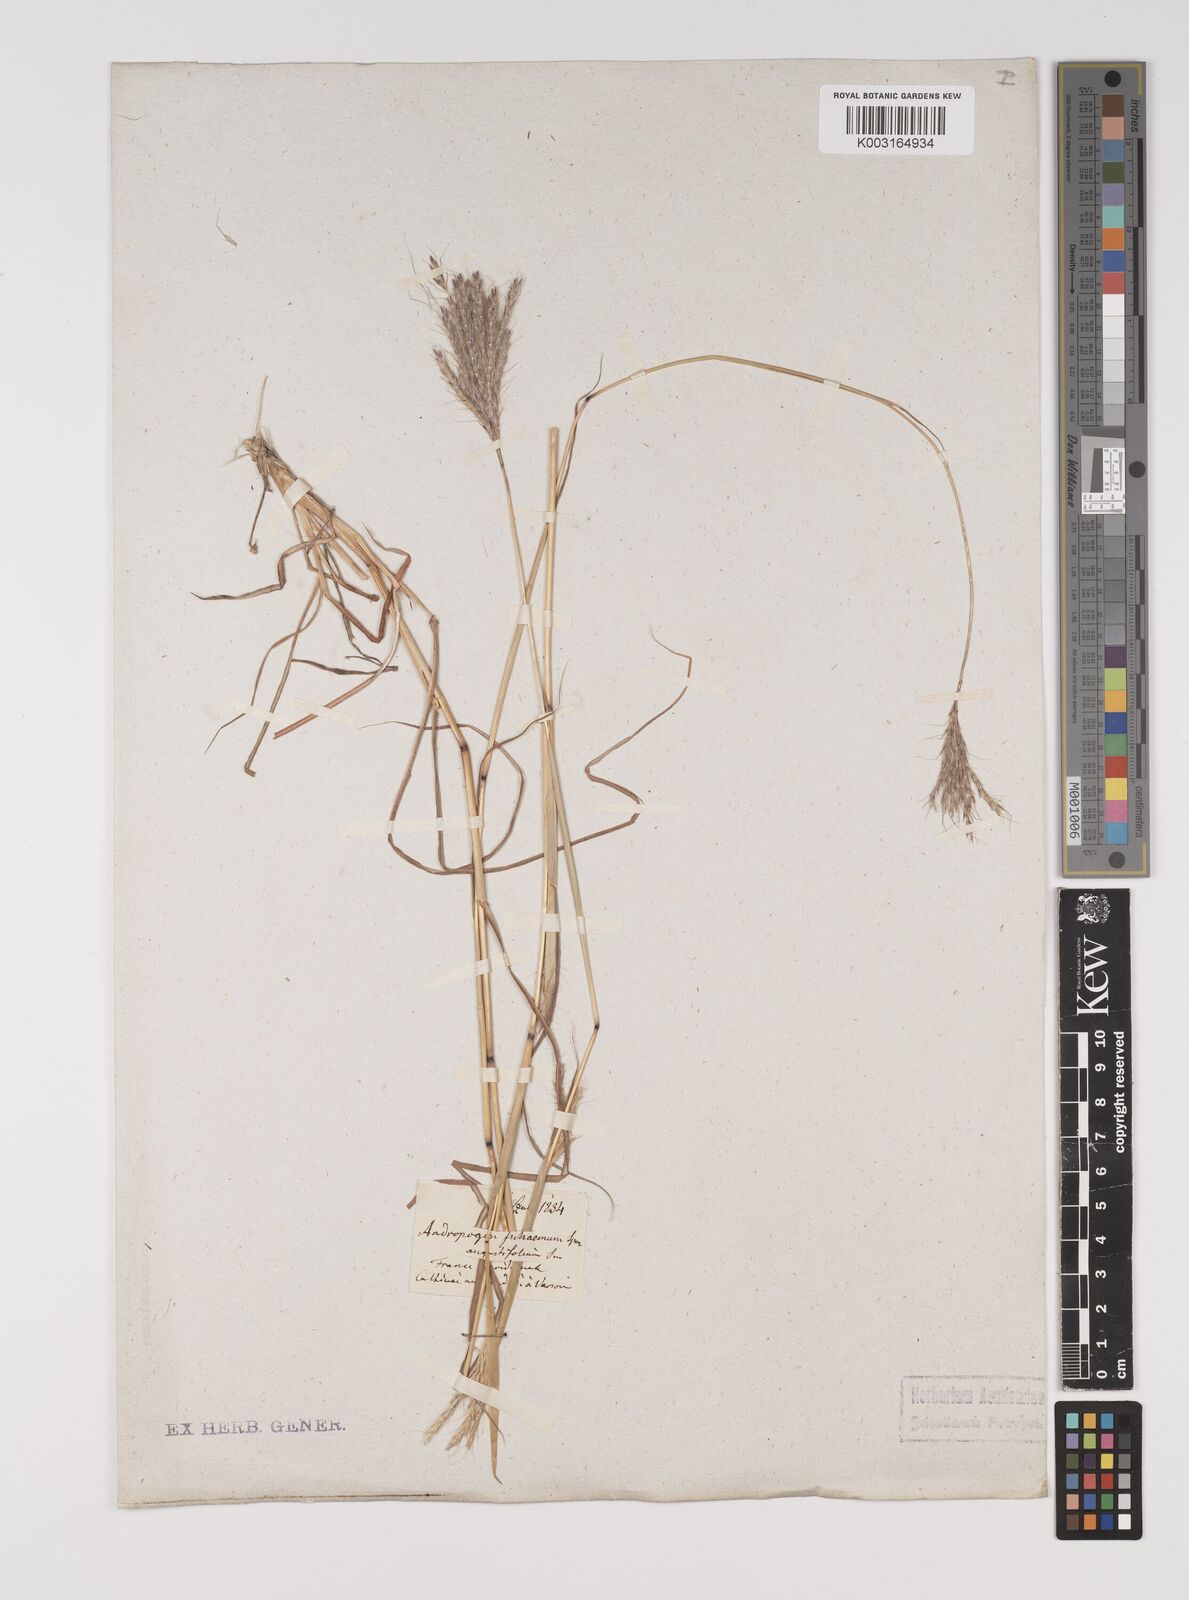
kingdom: Plantae
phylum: Tracheophyta
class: Liliopsida
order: Poales
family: Poaceae
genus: Bothriochloa
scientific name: Bothriochloa ischaemum
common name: Yellow bluestem
